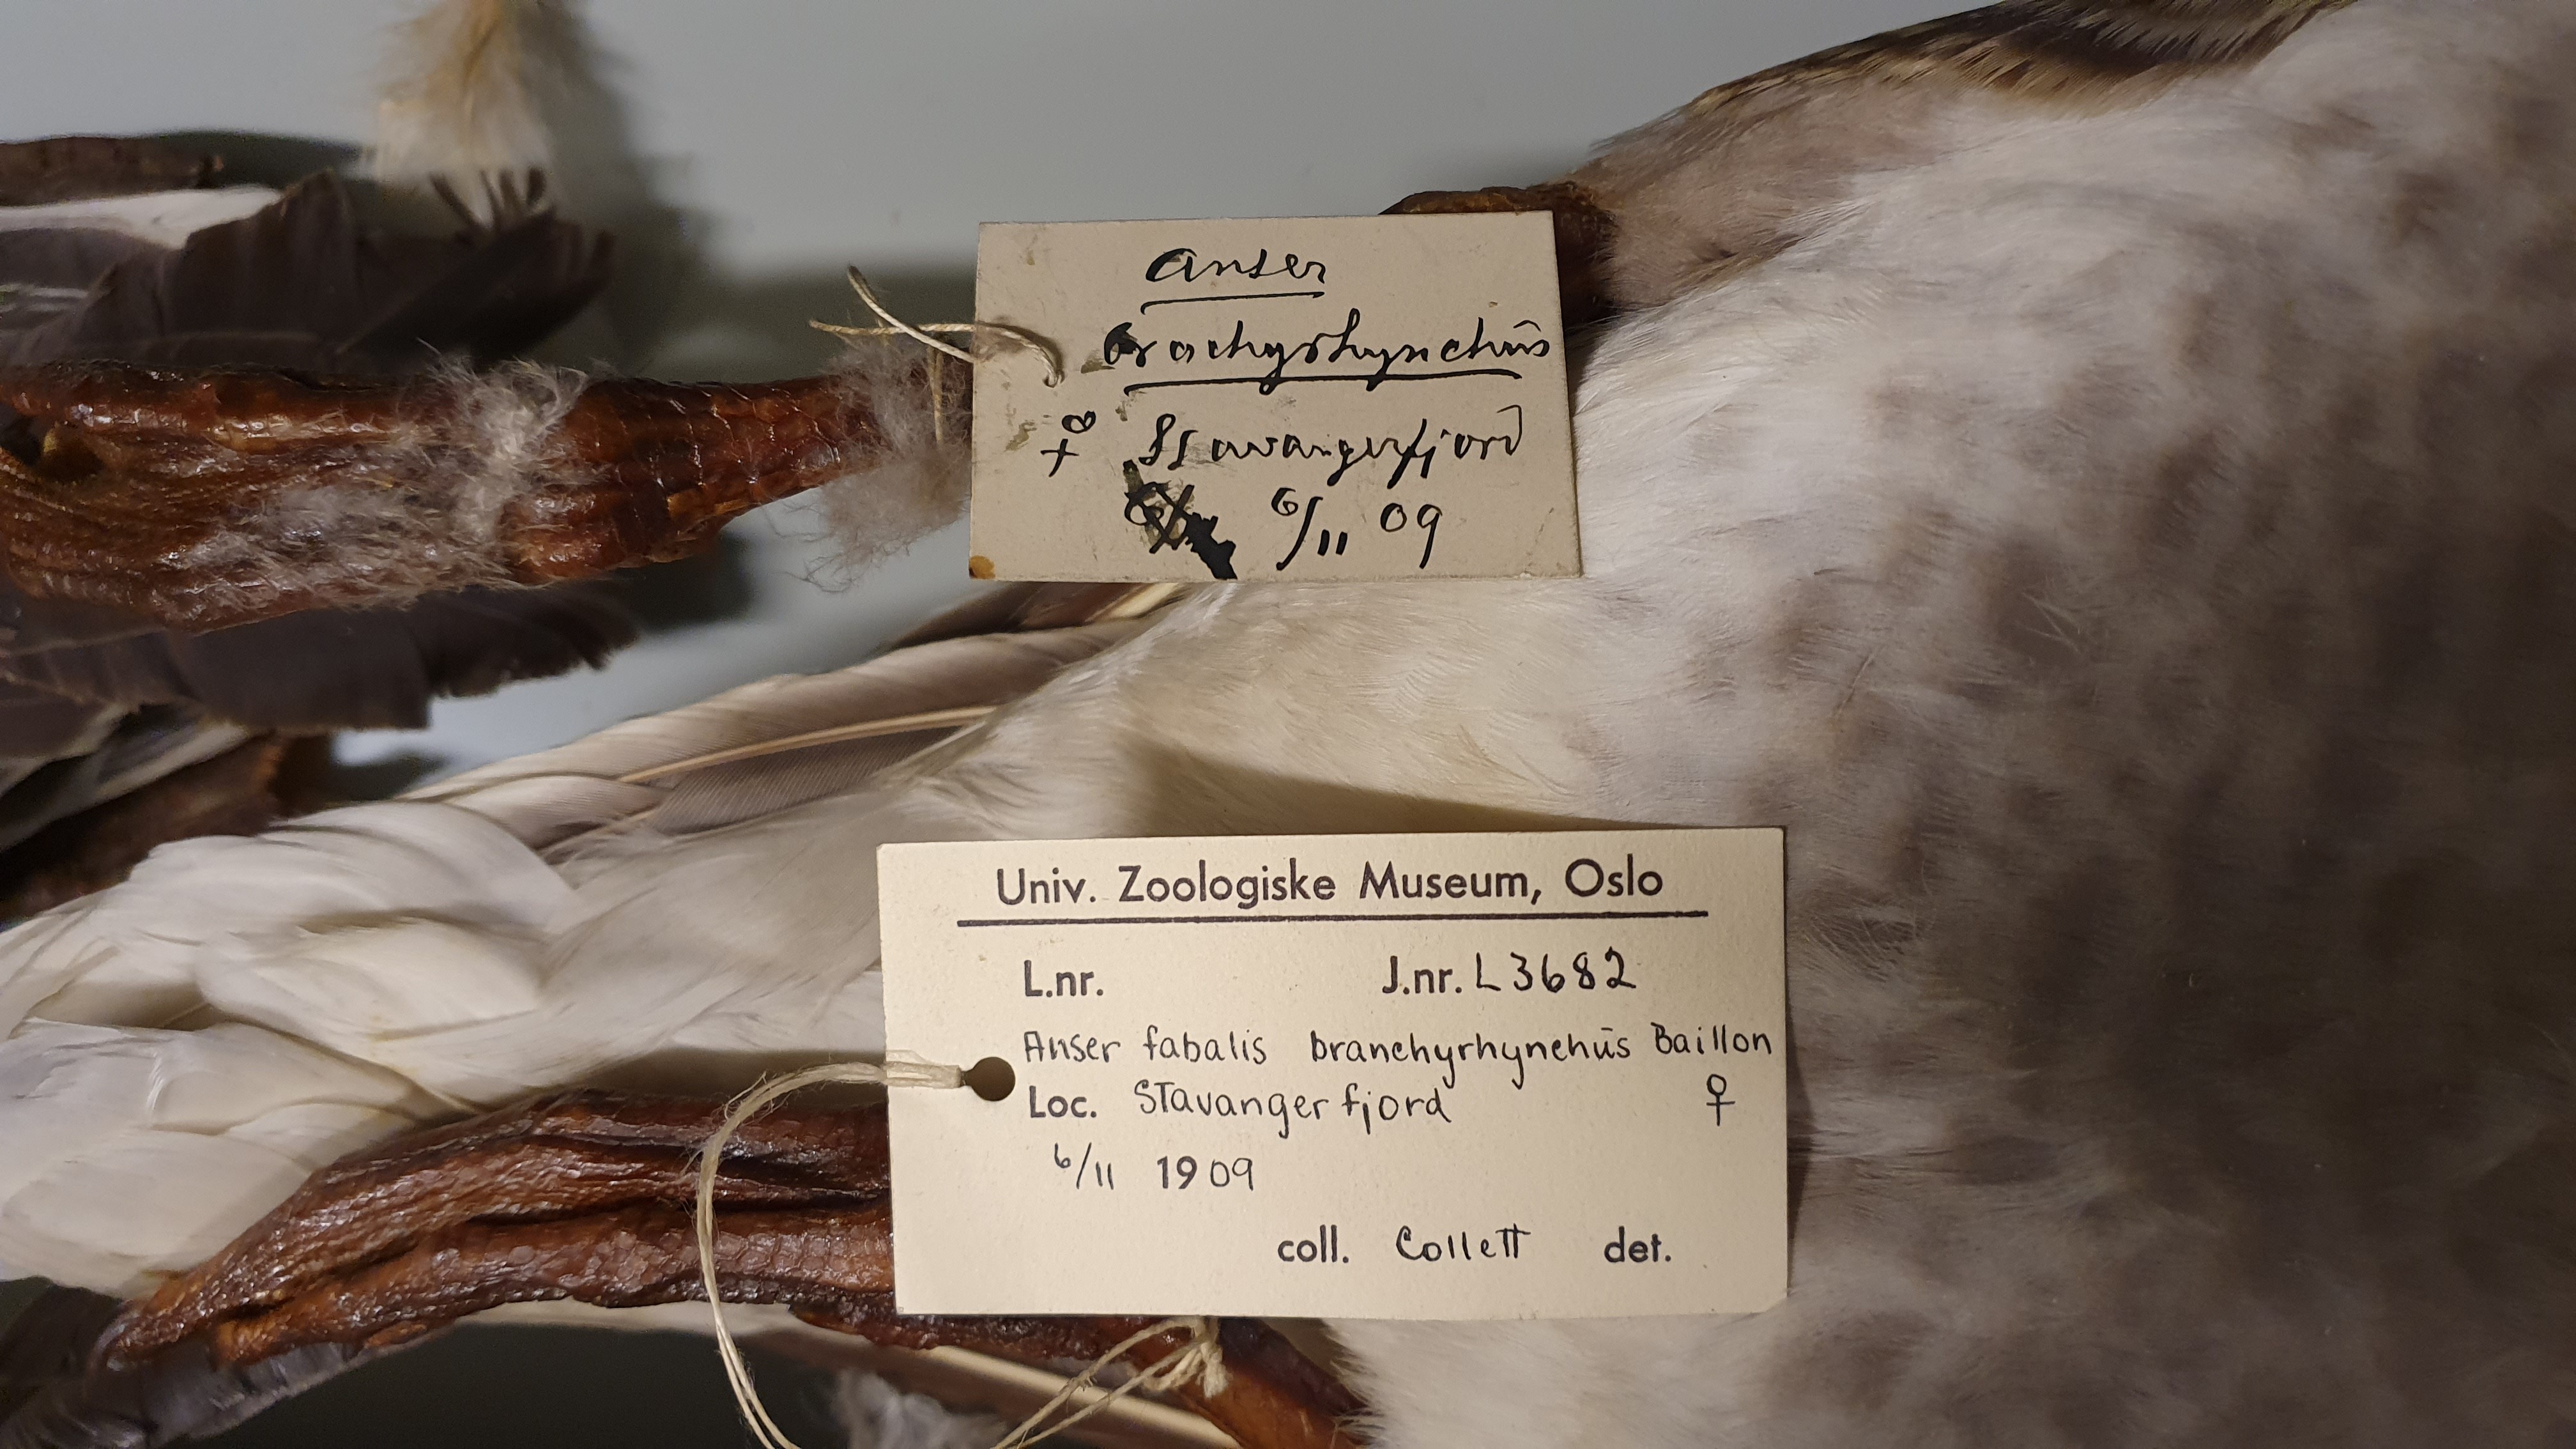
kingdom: Animalia
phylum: Chordata
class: Aves
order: Anseriformes
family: Anatidae
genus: Anser
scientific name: Anser brachyrhynchus
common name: Pink-footed goose
